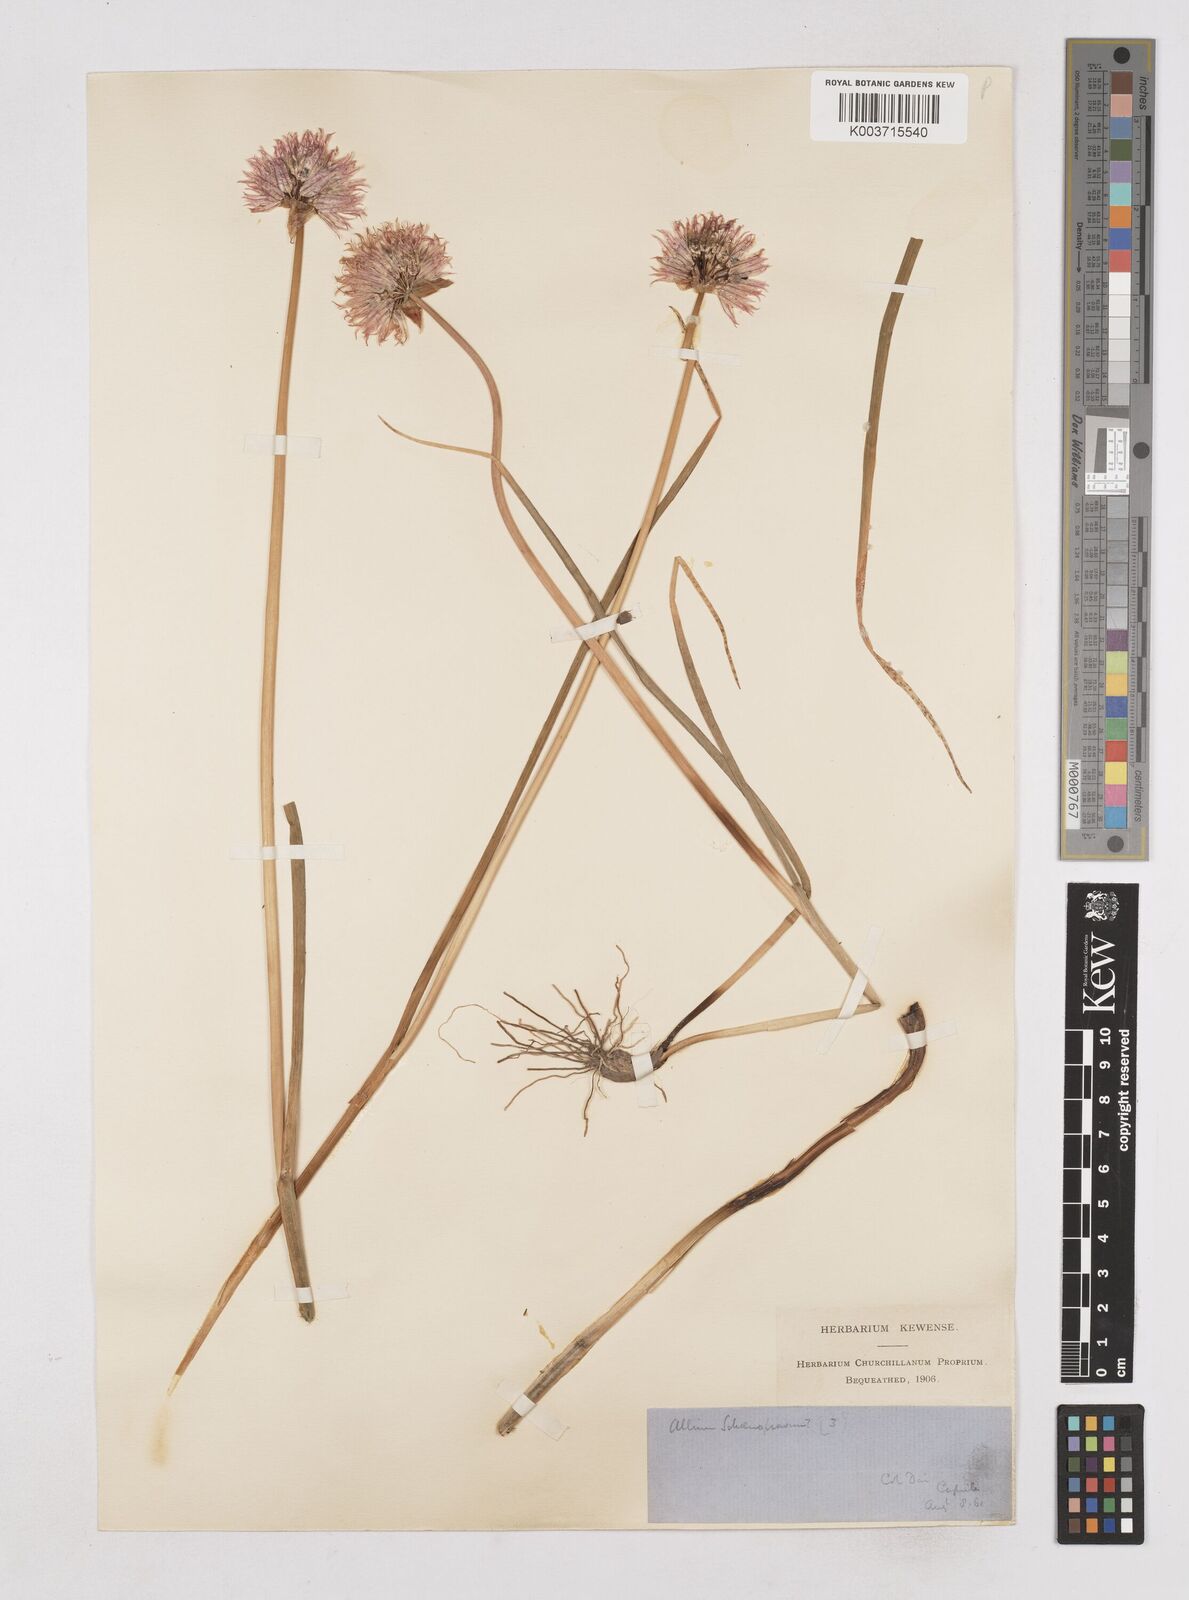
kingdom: Plantae
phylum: Tracheophyta
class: Liliopsida
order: Asparagales
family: Amaryllidaceae
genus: Allium
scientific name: Allium schoenoprasum
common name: Chives
